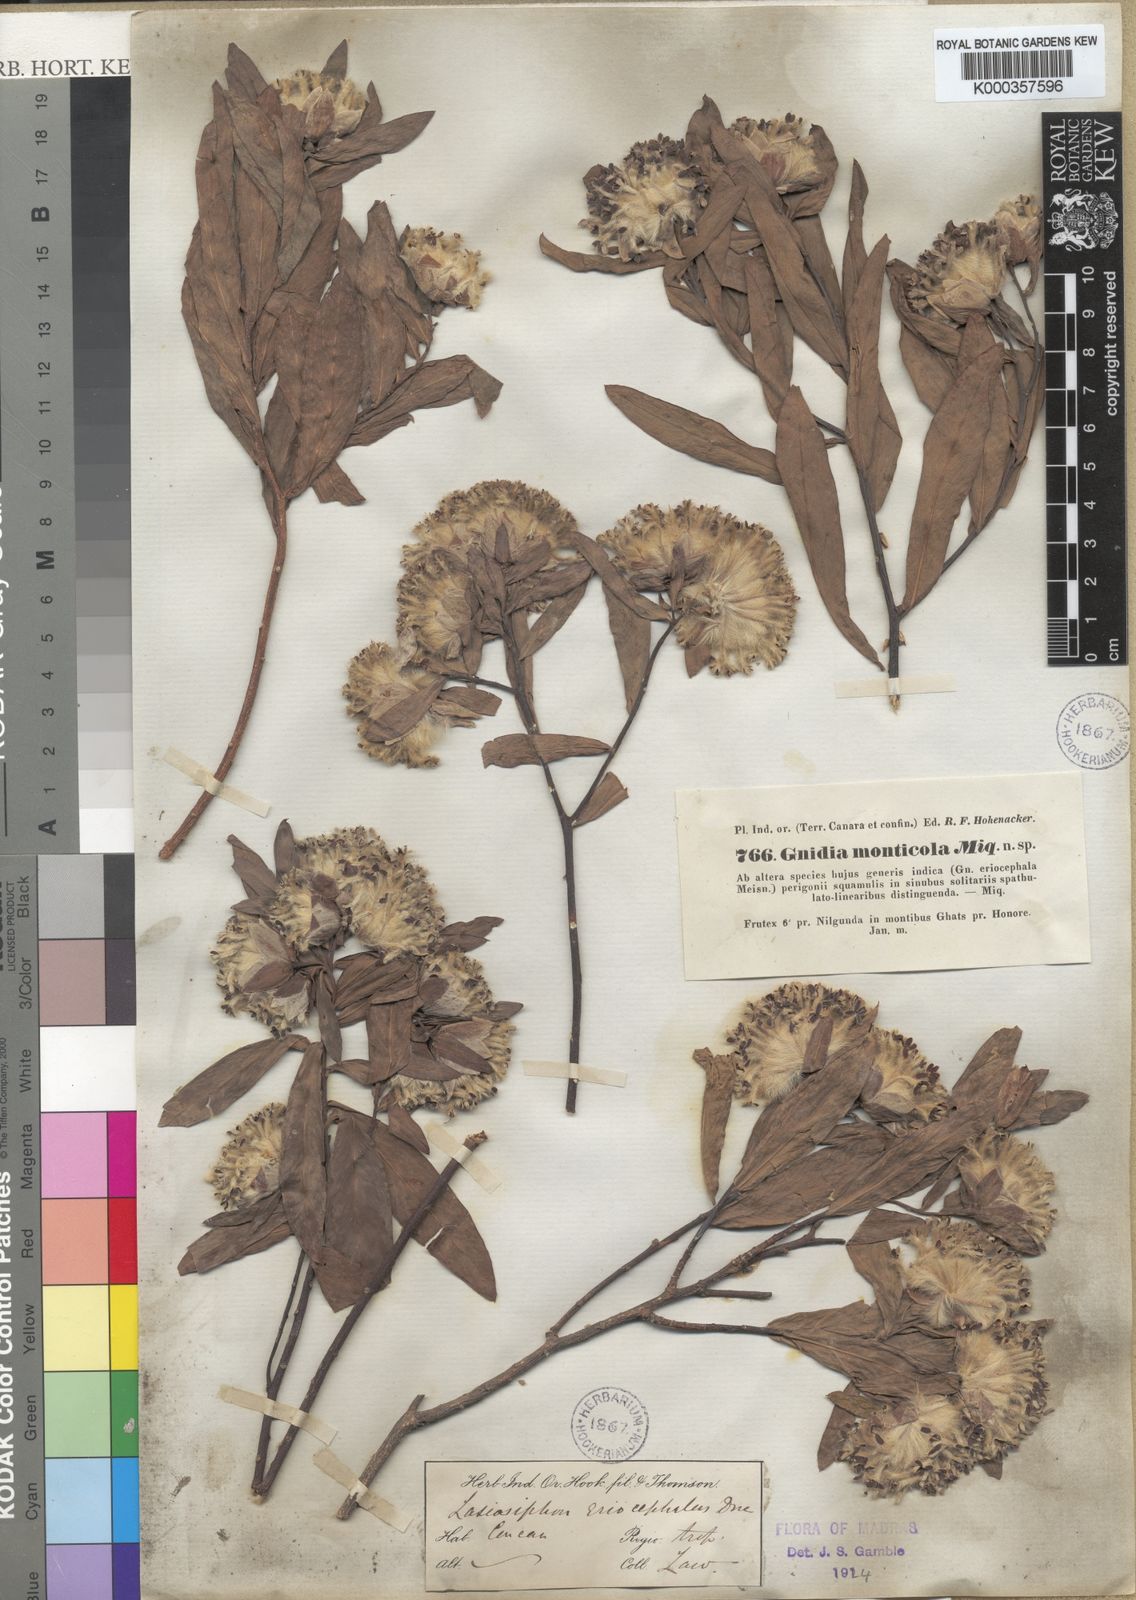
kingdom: Plantae
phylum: Tracheophyta
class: Magnoliopsida
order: Malvales
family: Thymelaeaceae
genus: Gnidia
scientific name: Gnidia glauca
